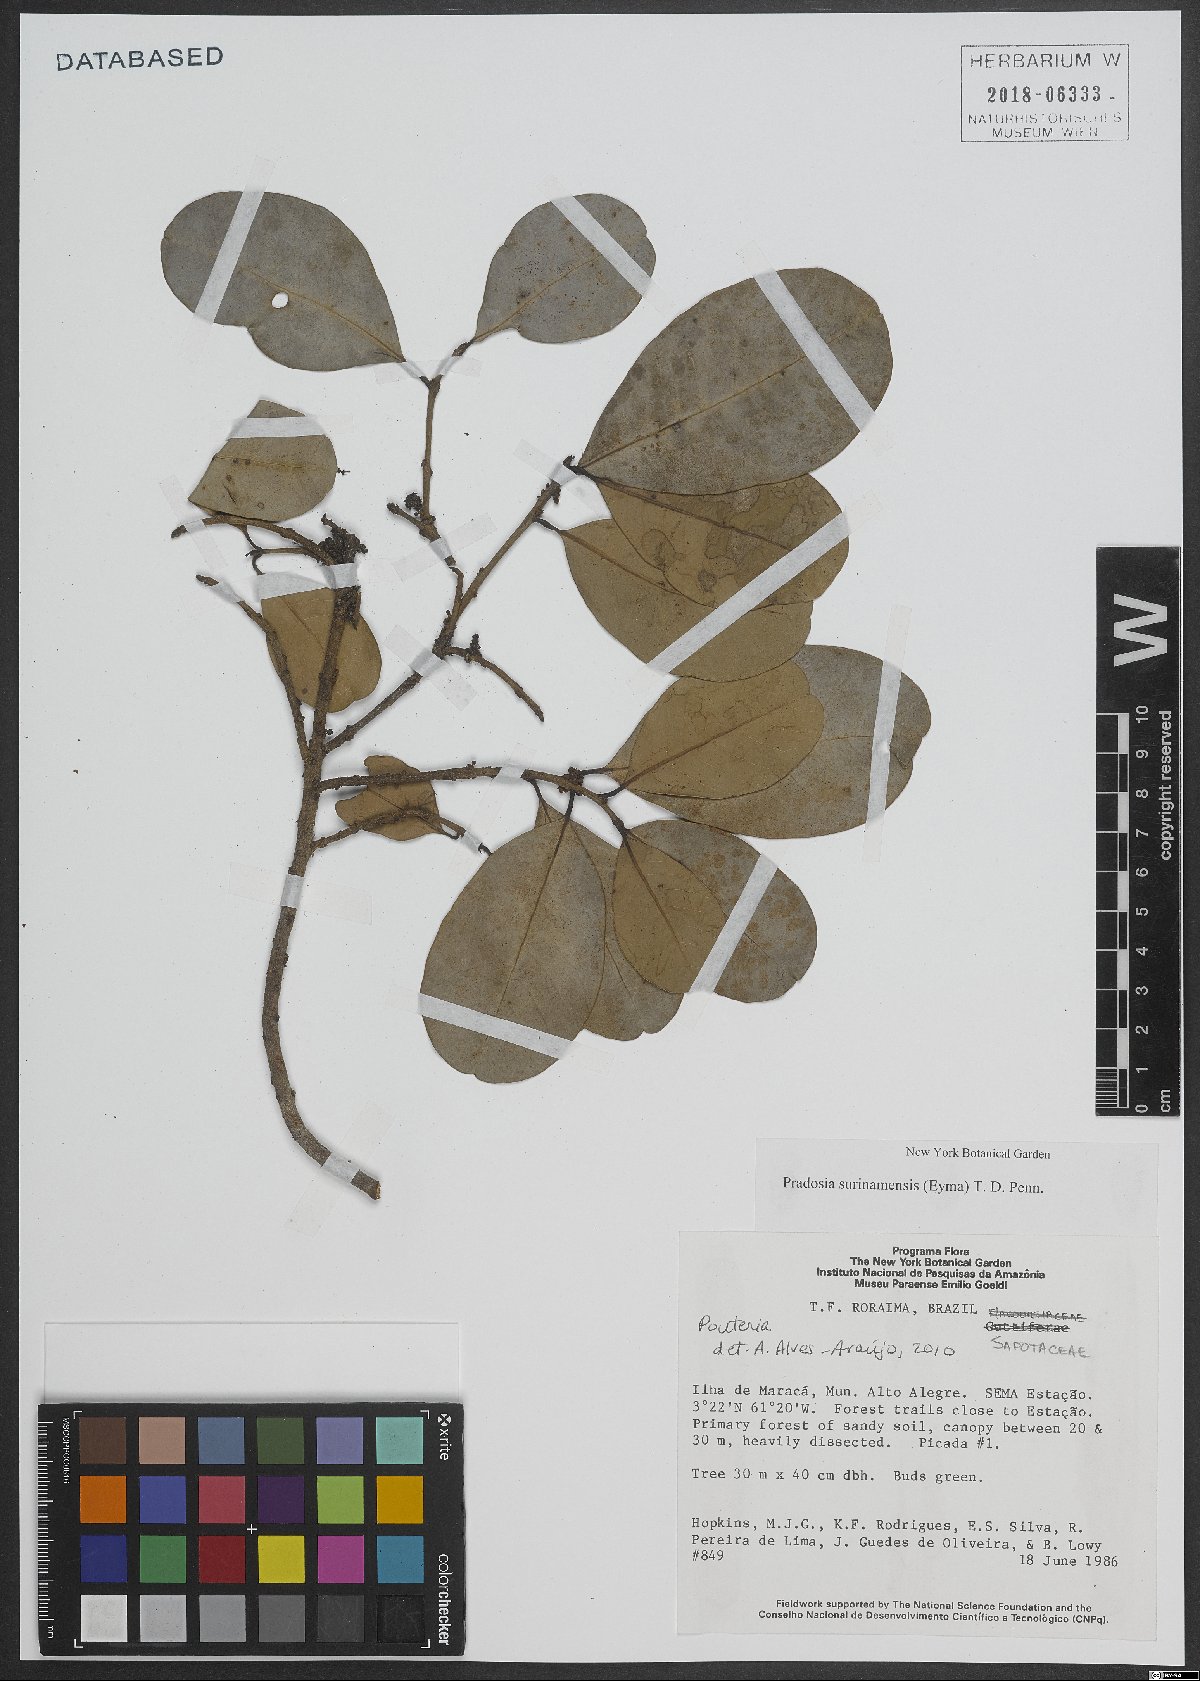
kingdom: Plantae
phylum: Tracheophyta
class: Magnoliopsida
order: Ericales
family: Sapotaceae
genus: Pradosia
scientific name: Pradosia surinamensis
